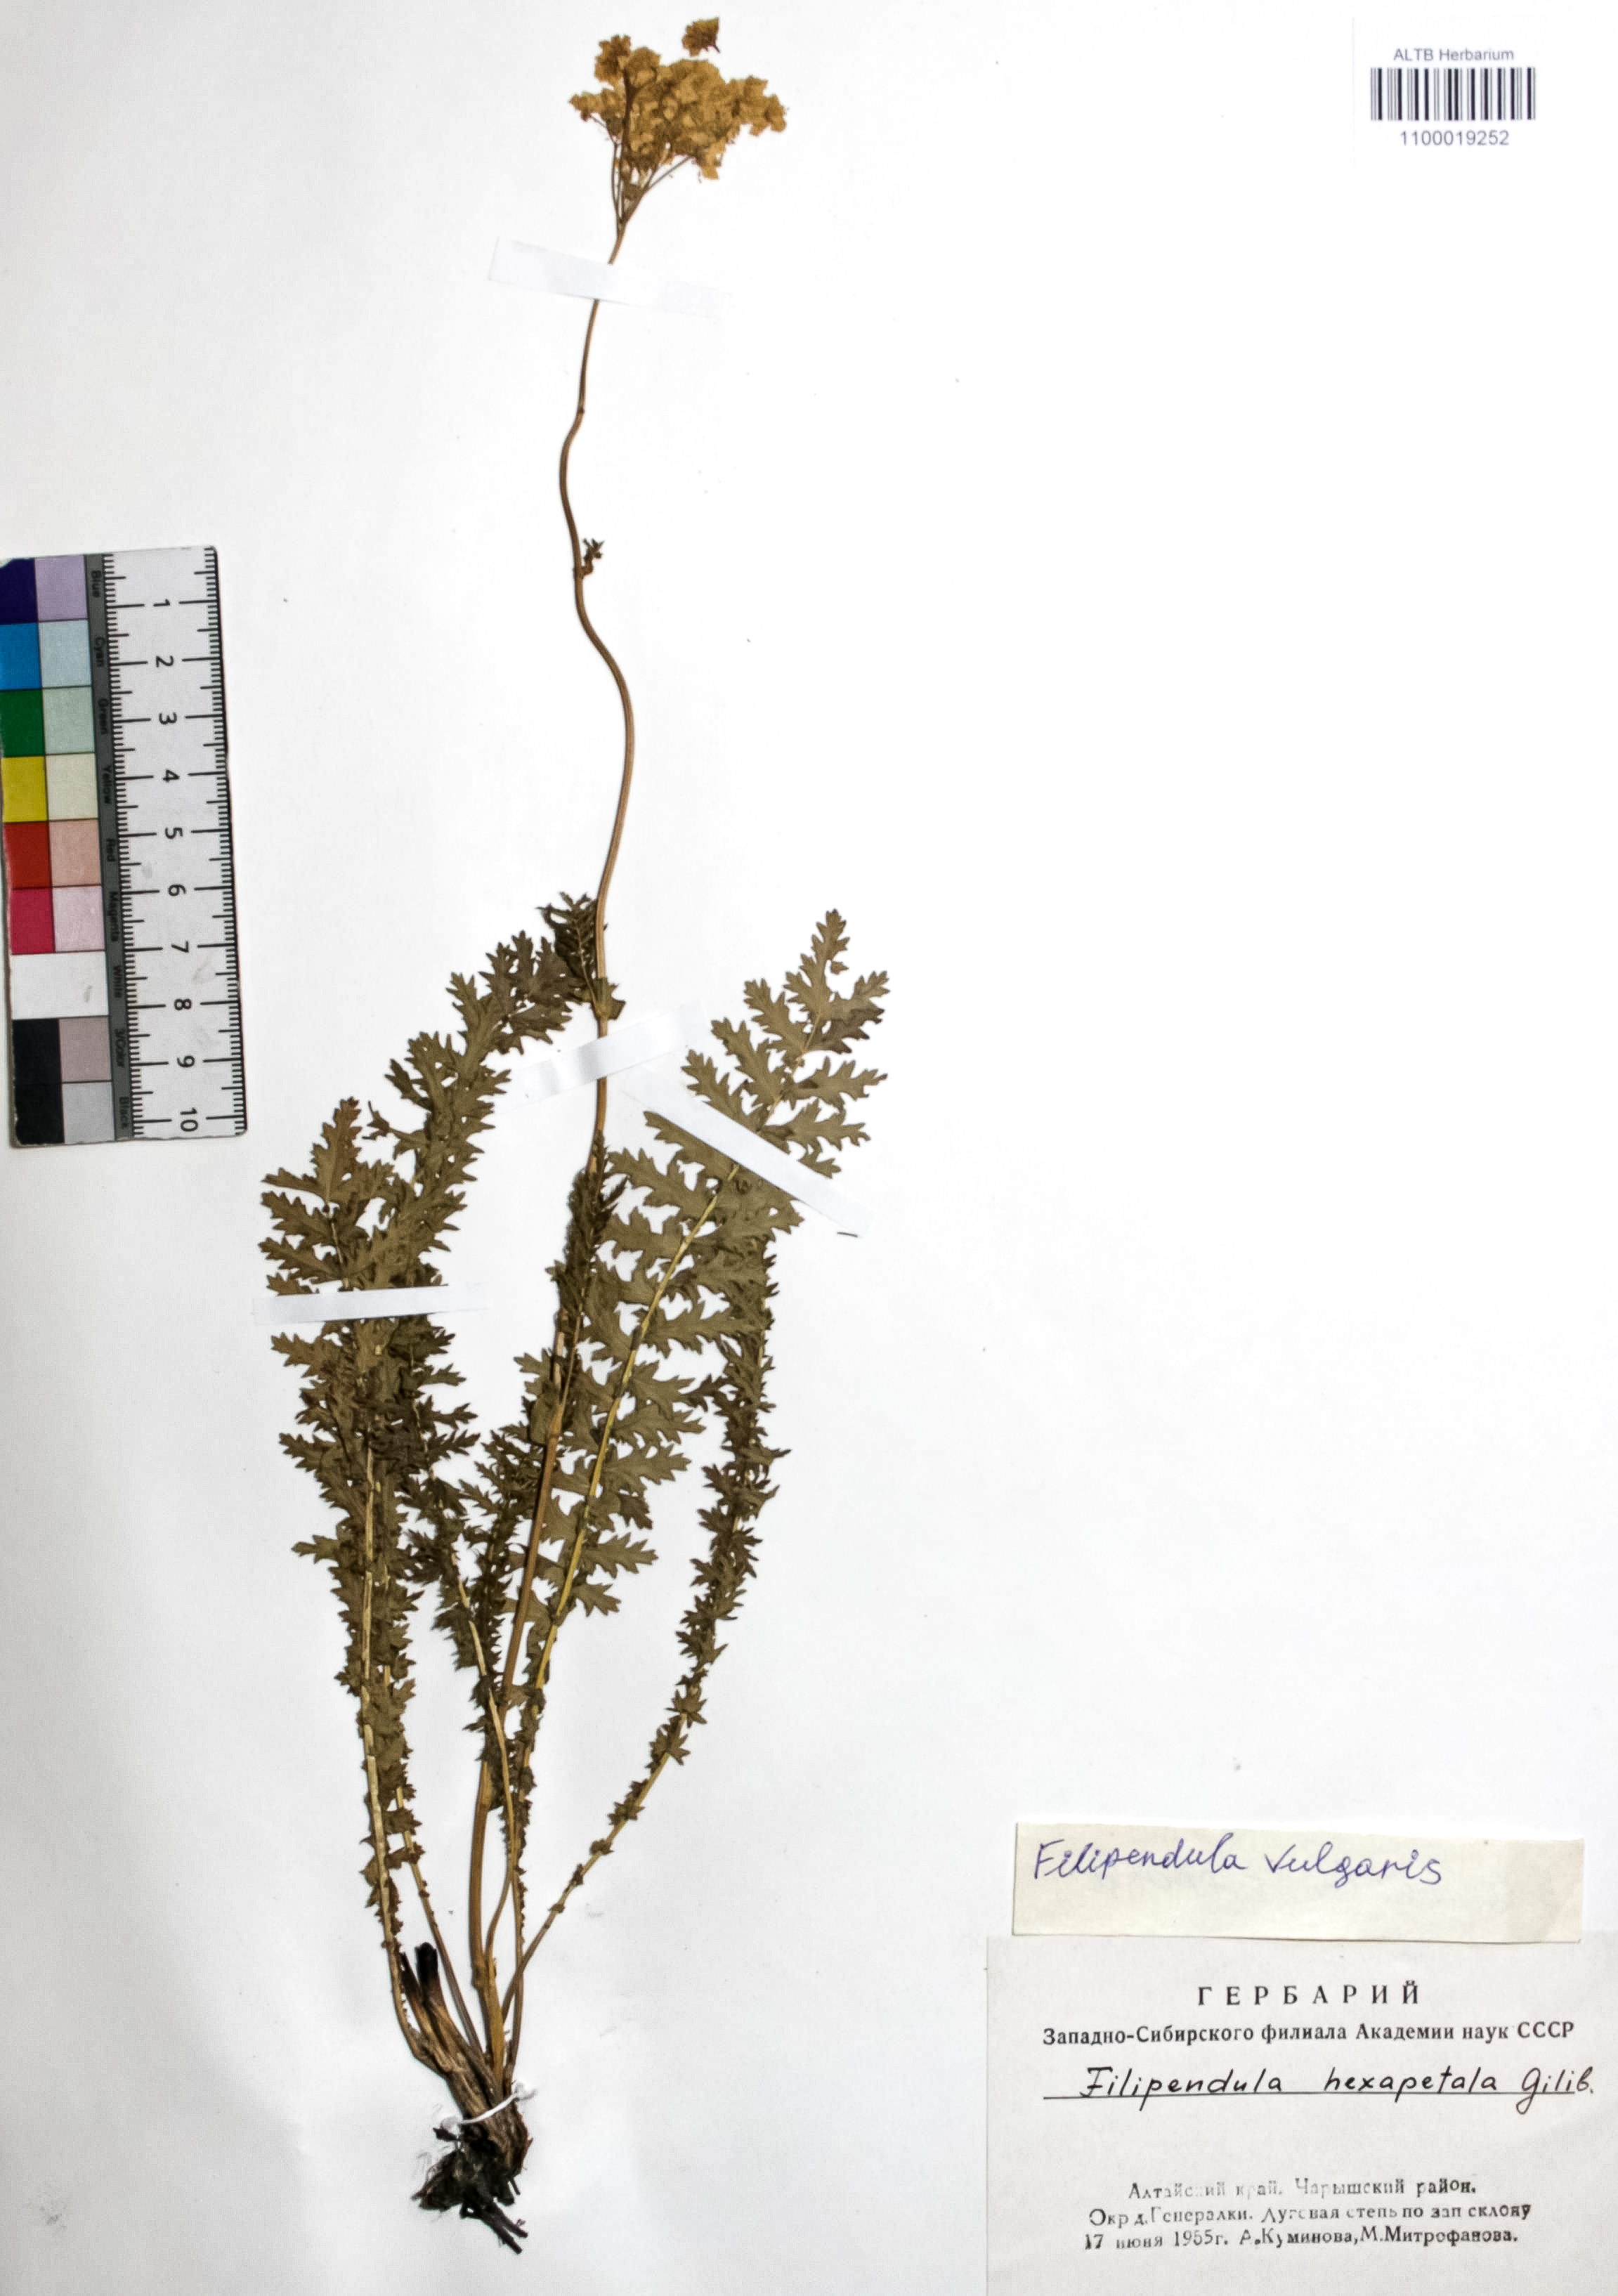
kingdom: Plantae
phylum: Tracheophyta
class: Magnoliopsida
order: Rosales
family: Rosaceae
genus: Filipendula
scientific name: Filipendula vulgaris
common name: Dropwort
